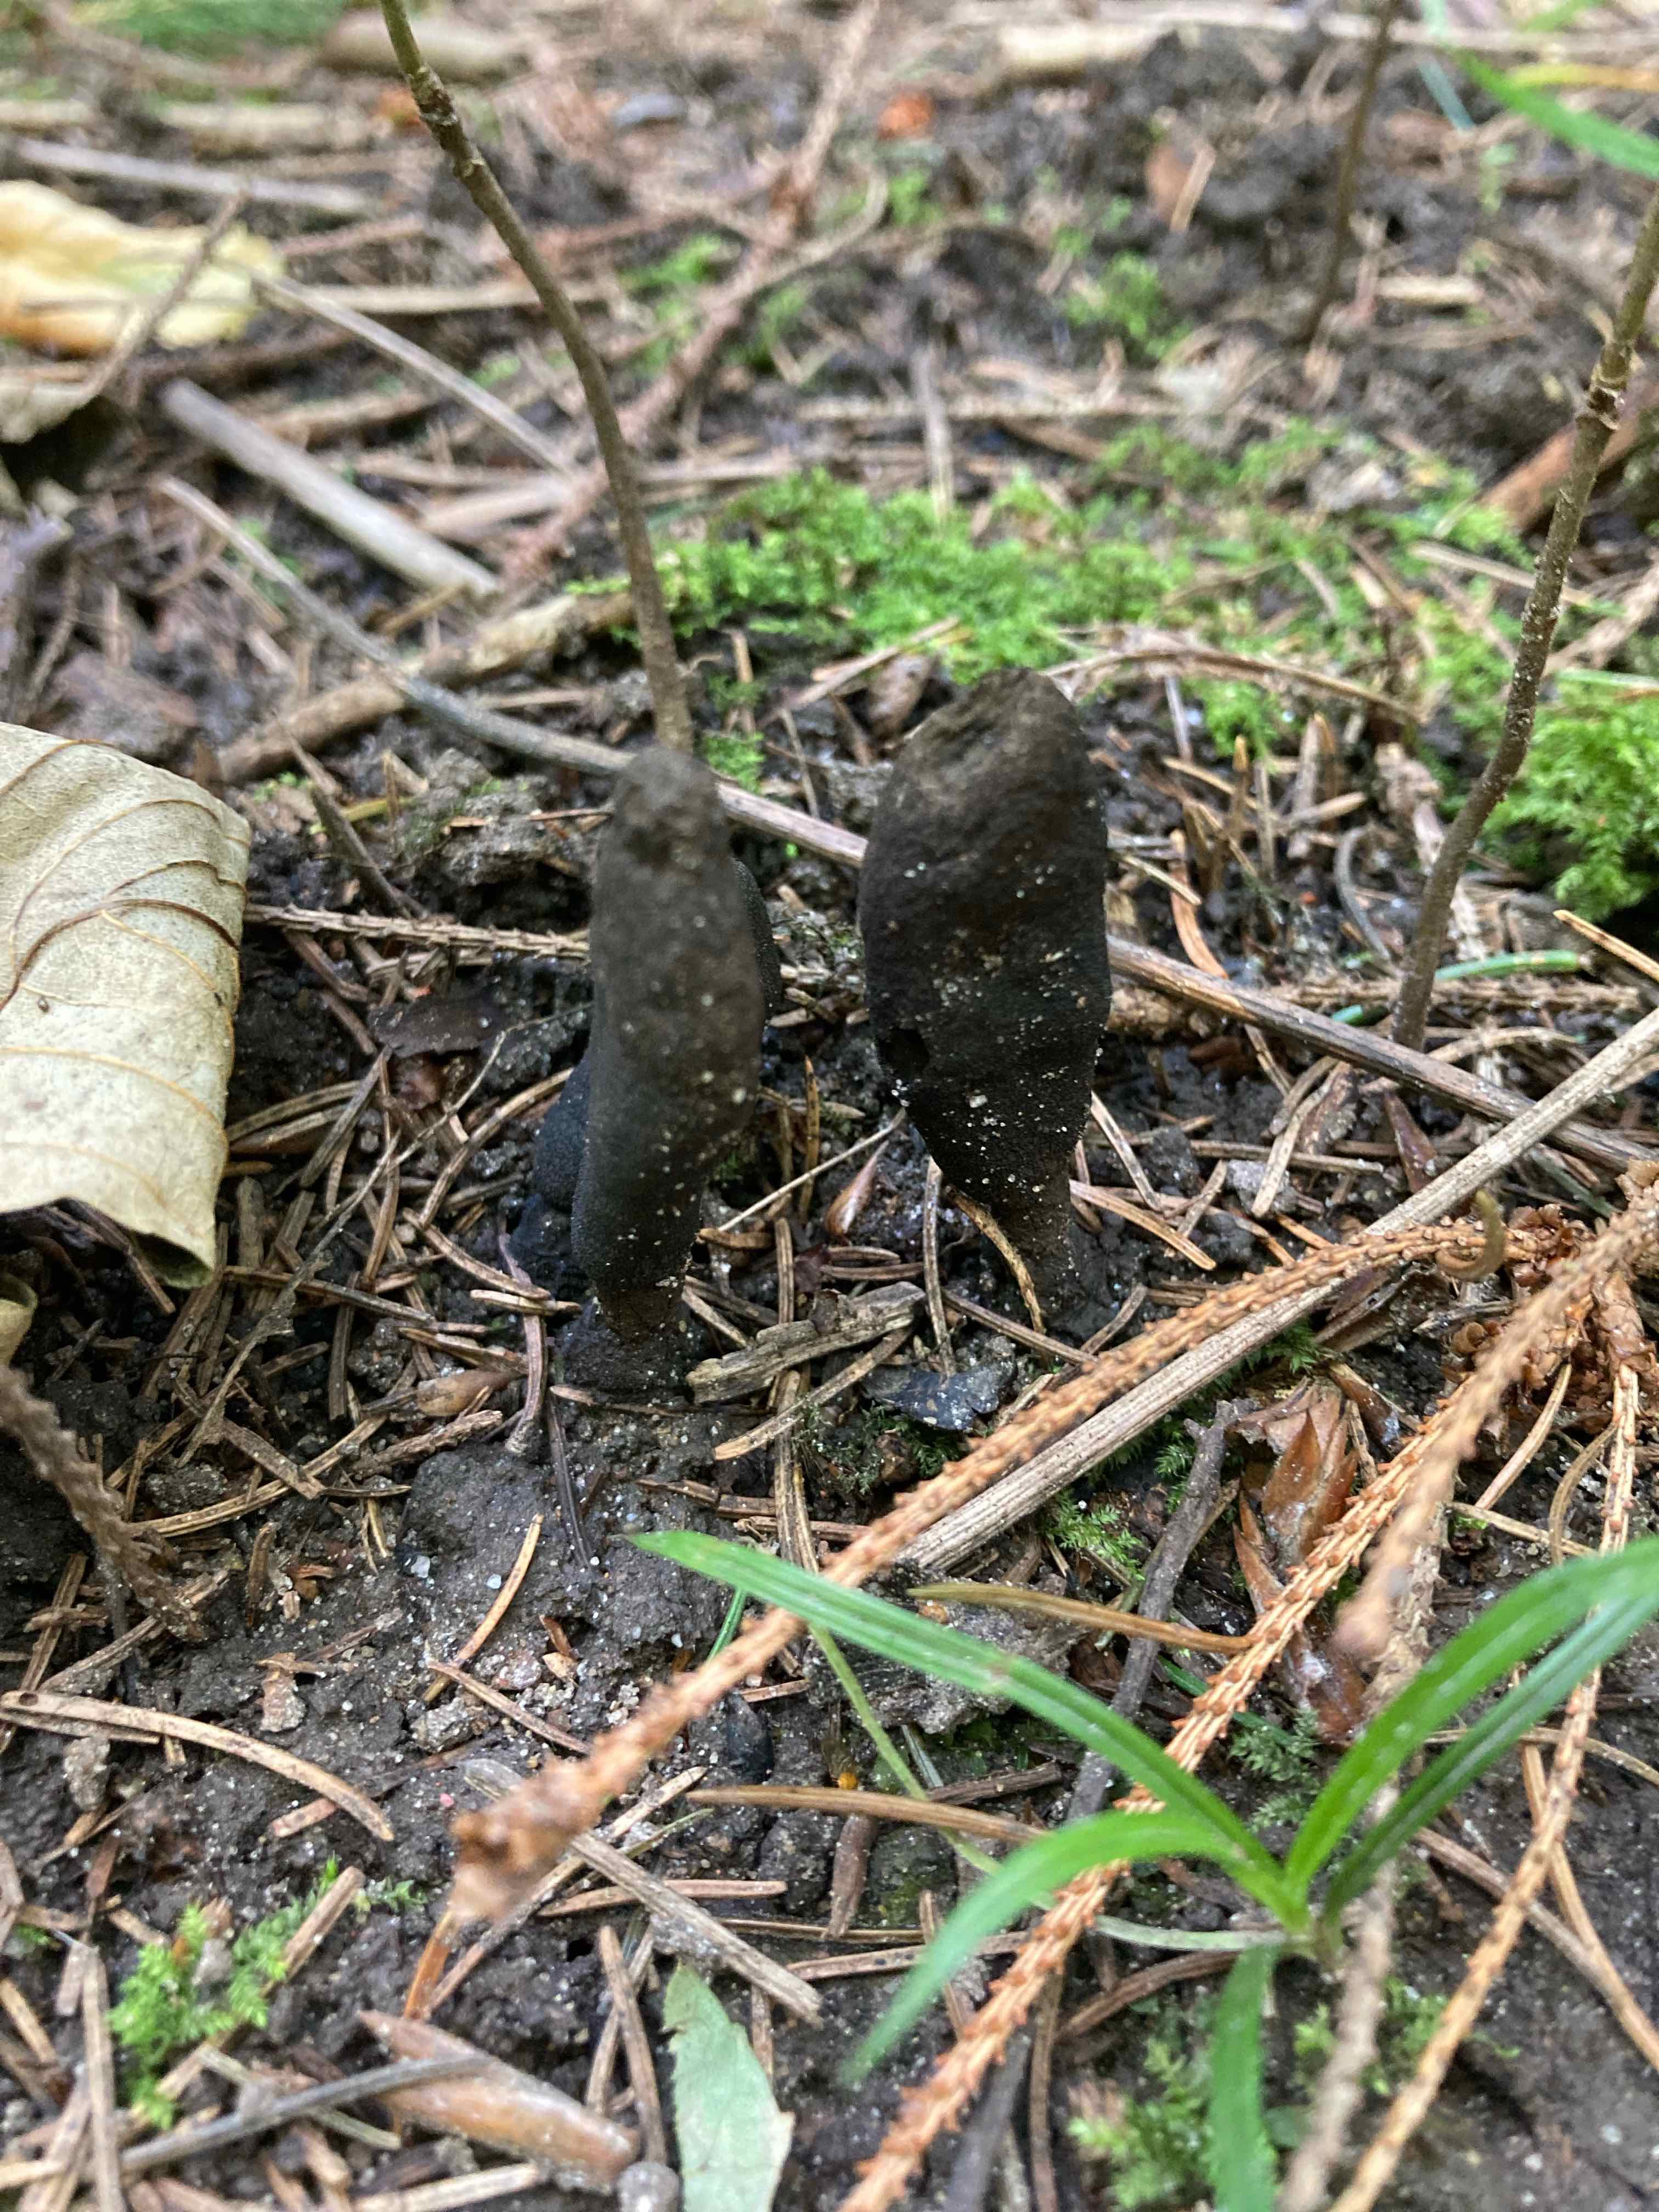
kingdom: Fungi
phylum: Ascomycota
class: Sordariomycetes
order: Xylariales
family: Xylariaceae
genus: Xylaria
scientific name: Xylaria
